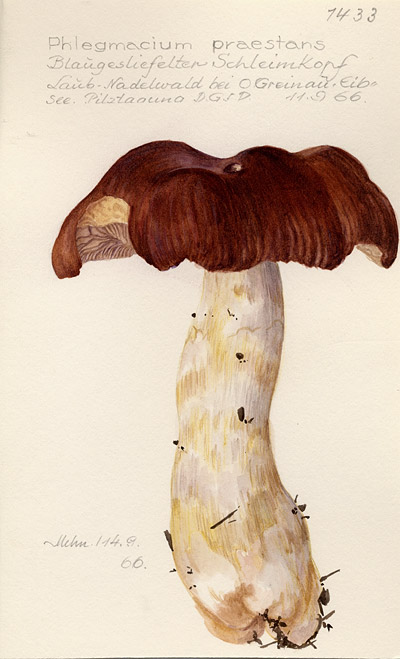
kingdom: Fungi
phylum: Basidiomycota
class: Agaricomycetes
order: Agaricales
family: Cortinariaceae
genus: Cortinarius
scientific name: Cortinarius praestans
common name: Goliath webcap
